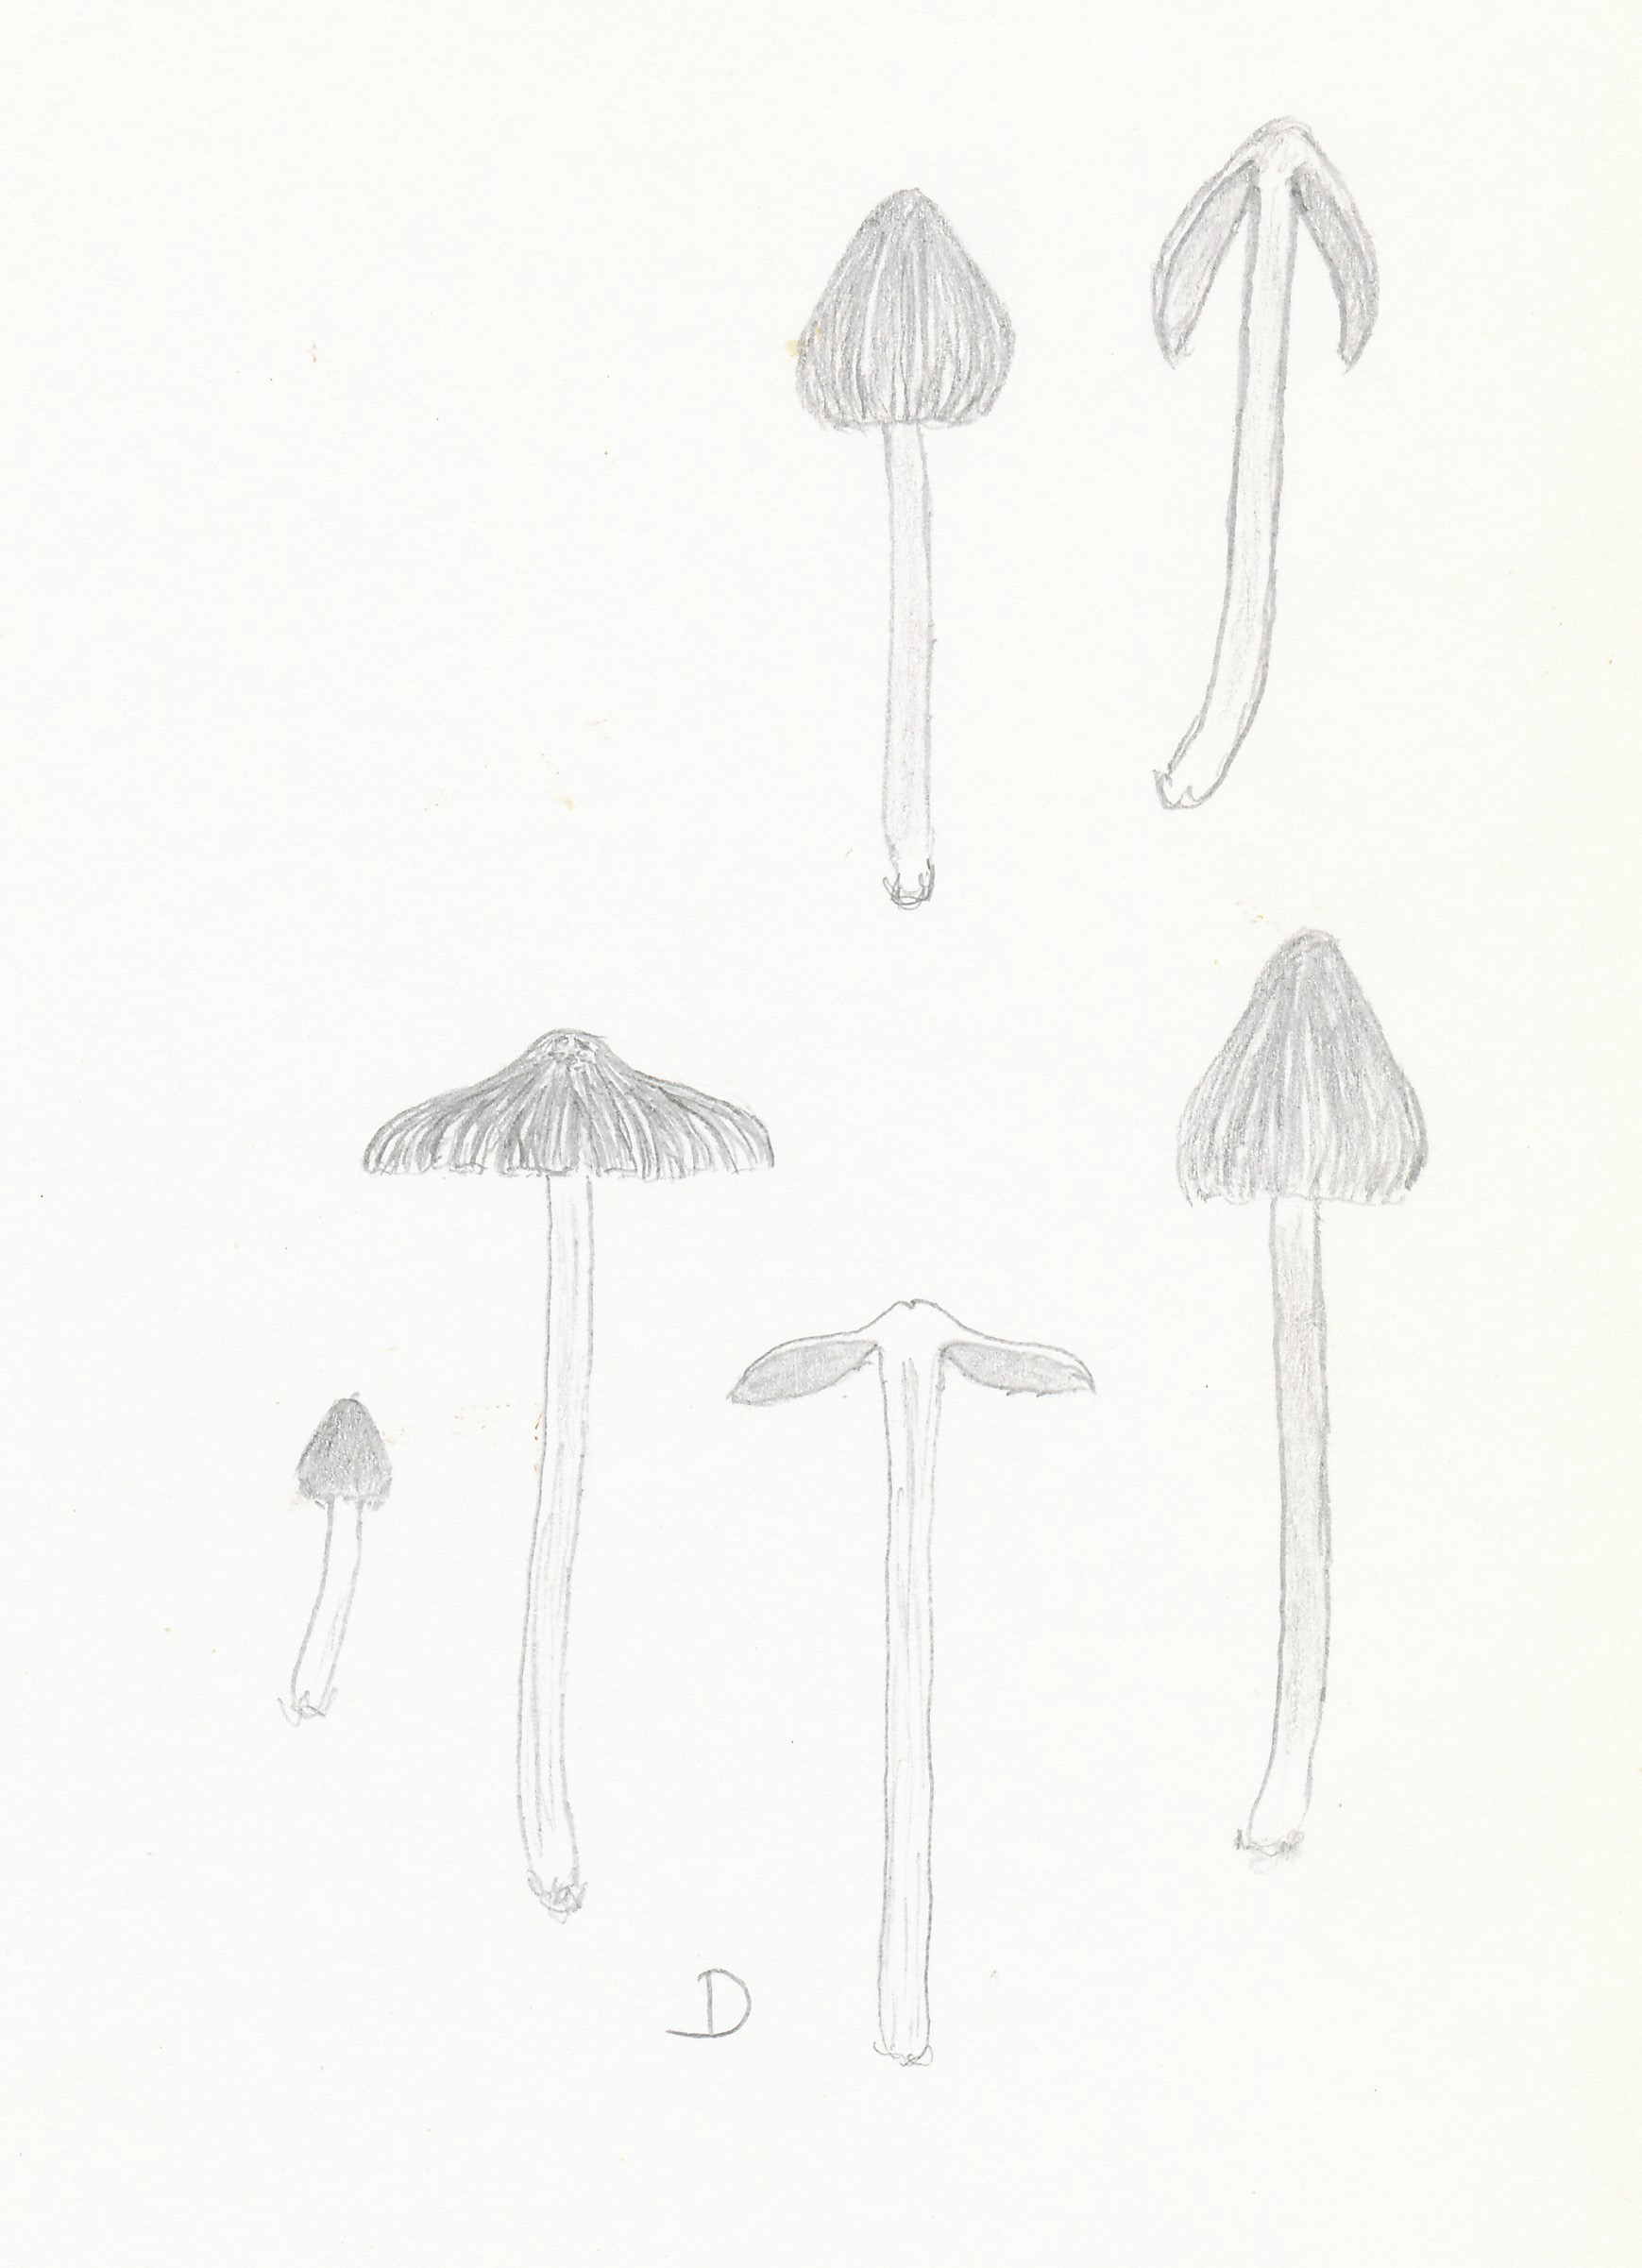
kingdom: Fungi
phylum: Basidiomycota
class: Agaricomycetes
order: Agaricales
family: Inocybaceae
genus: Inocybe
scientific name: Inocybe glabripes
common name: småsporet trævlhat
